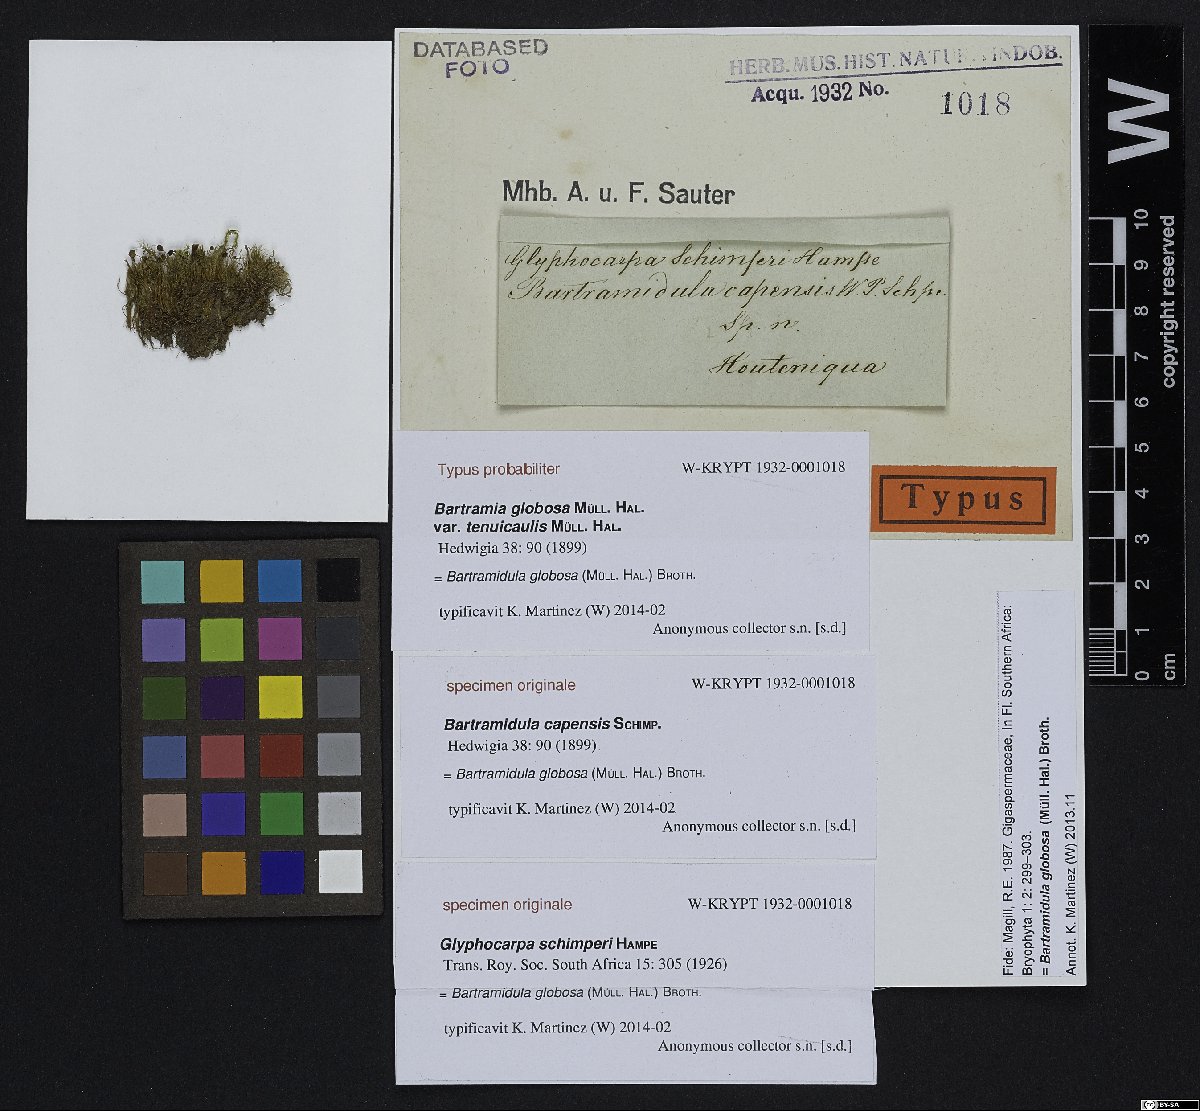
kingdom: Plantae
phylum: Bryophyta
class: Bryopsida
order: Bartramiales
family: Bartramiaceae
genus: Philonotis
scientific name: Philonotis globosa
